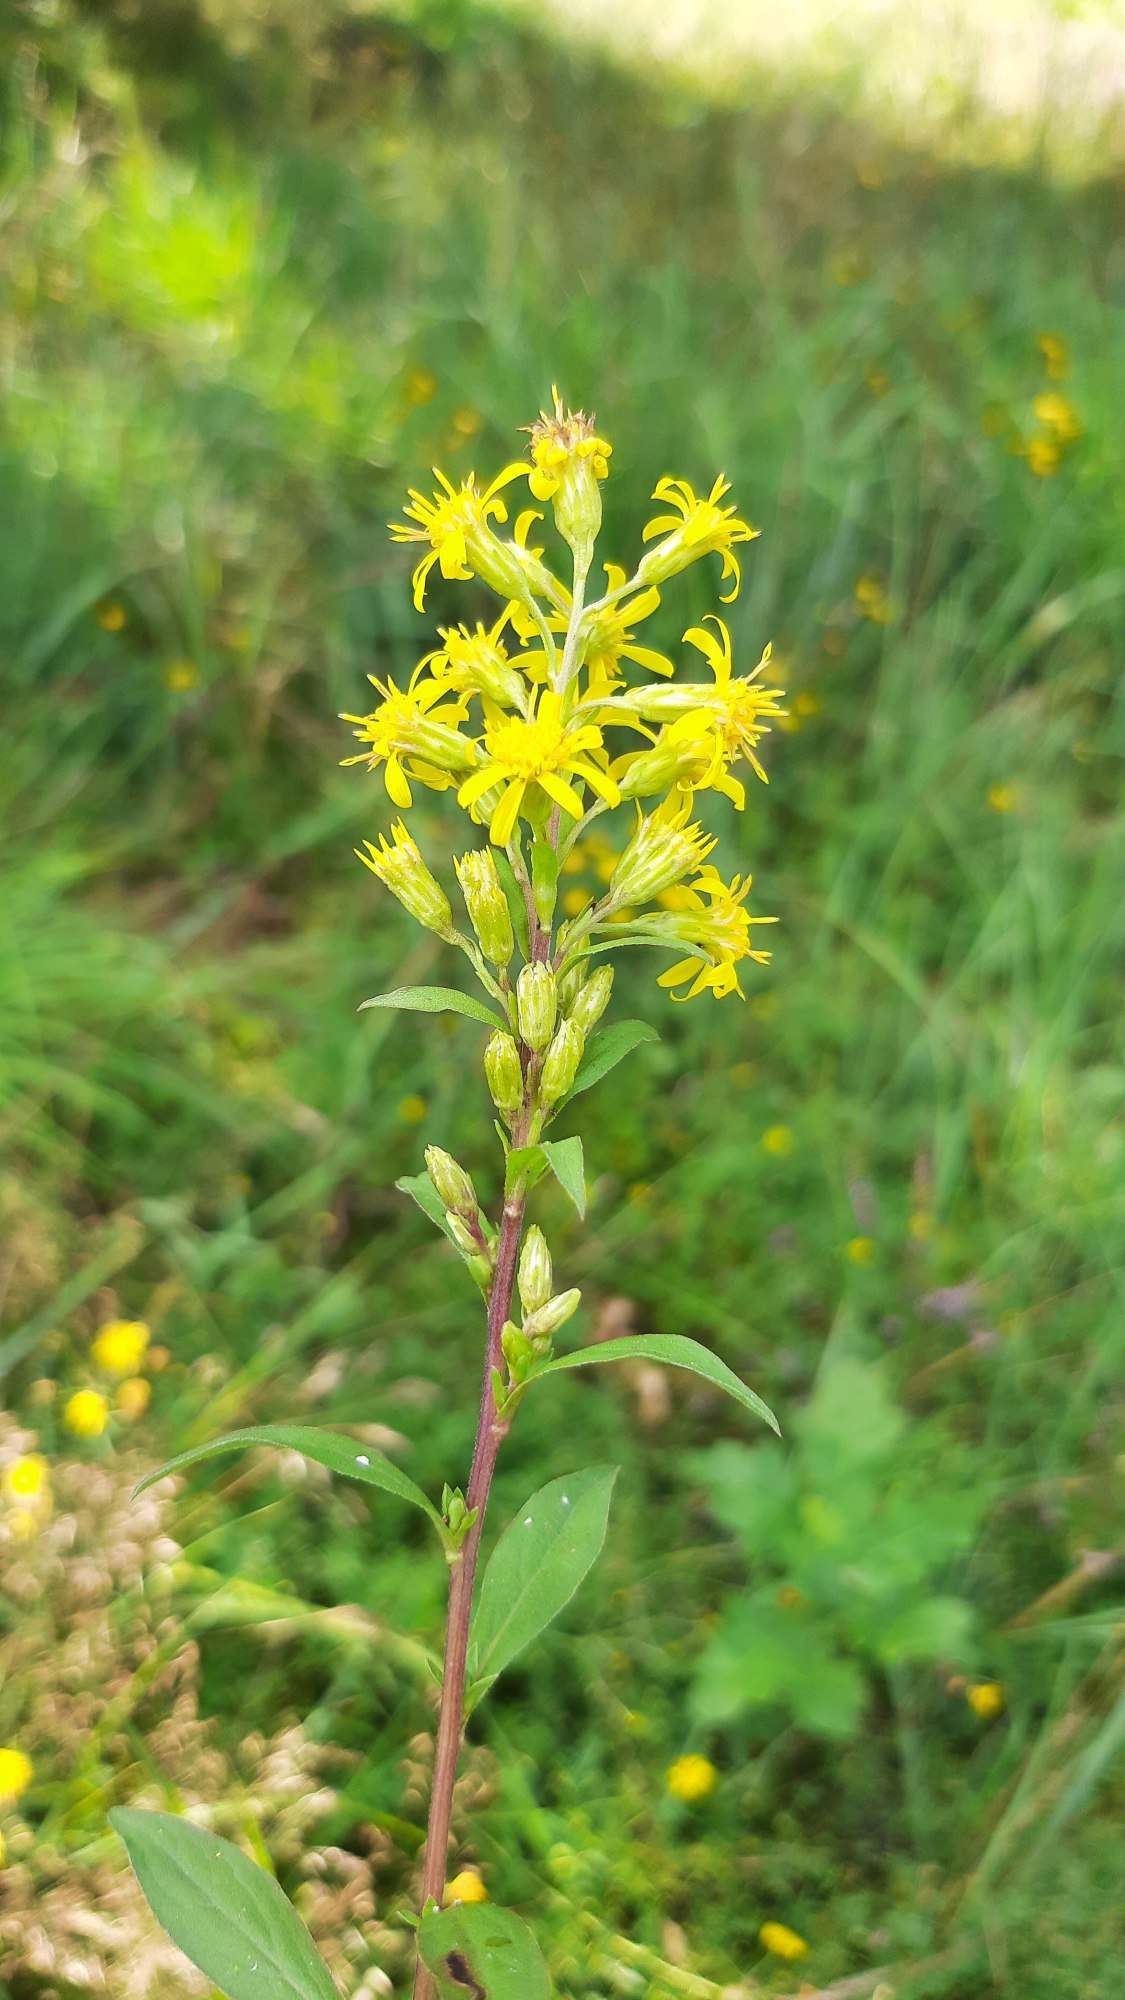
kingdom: Plantae
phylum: Tracheophyta
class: Magnoliopsida
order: Asterales
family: Asteraceae
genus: Solidago
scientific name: Solidago virgaurea
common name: Almindelig gyldenris
